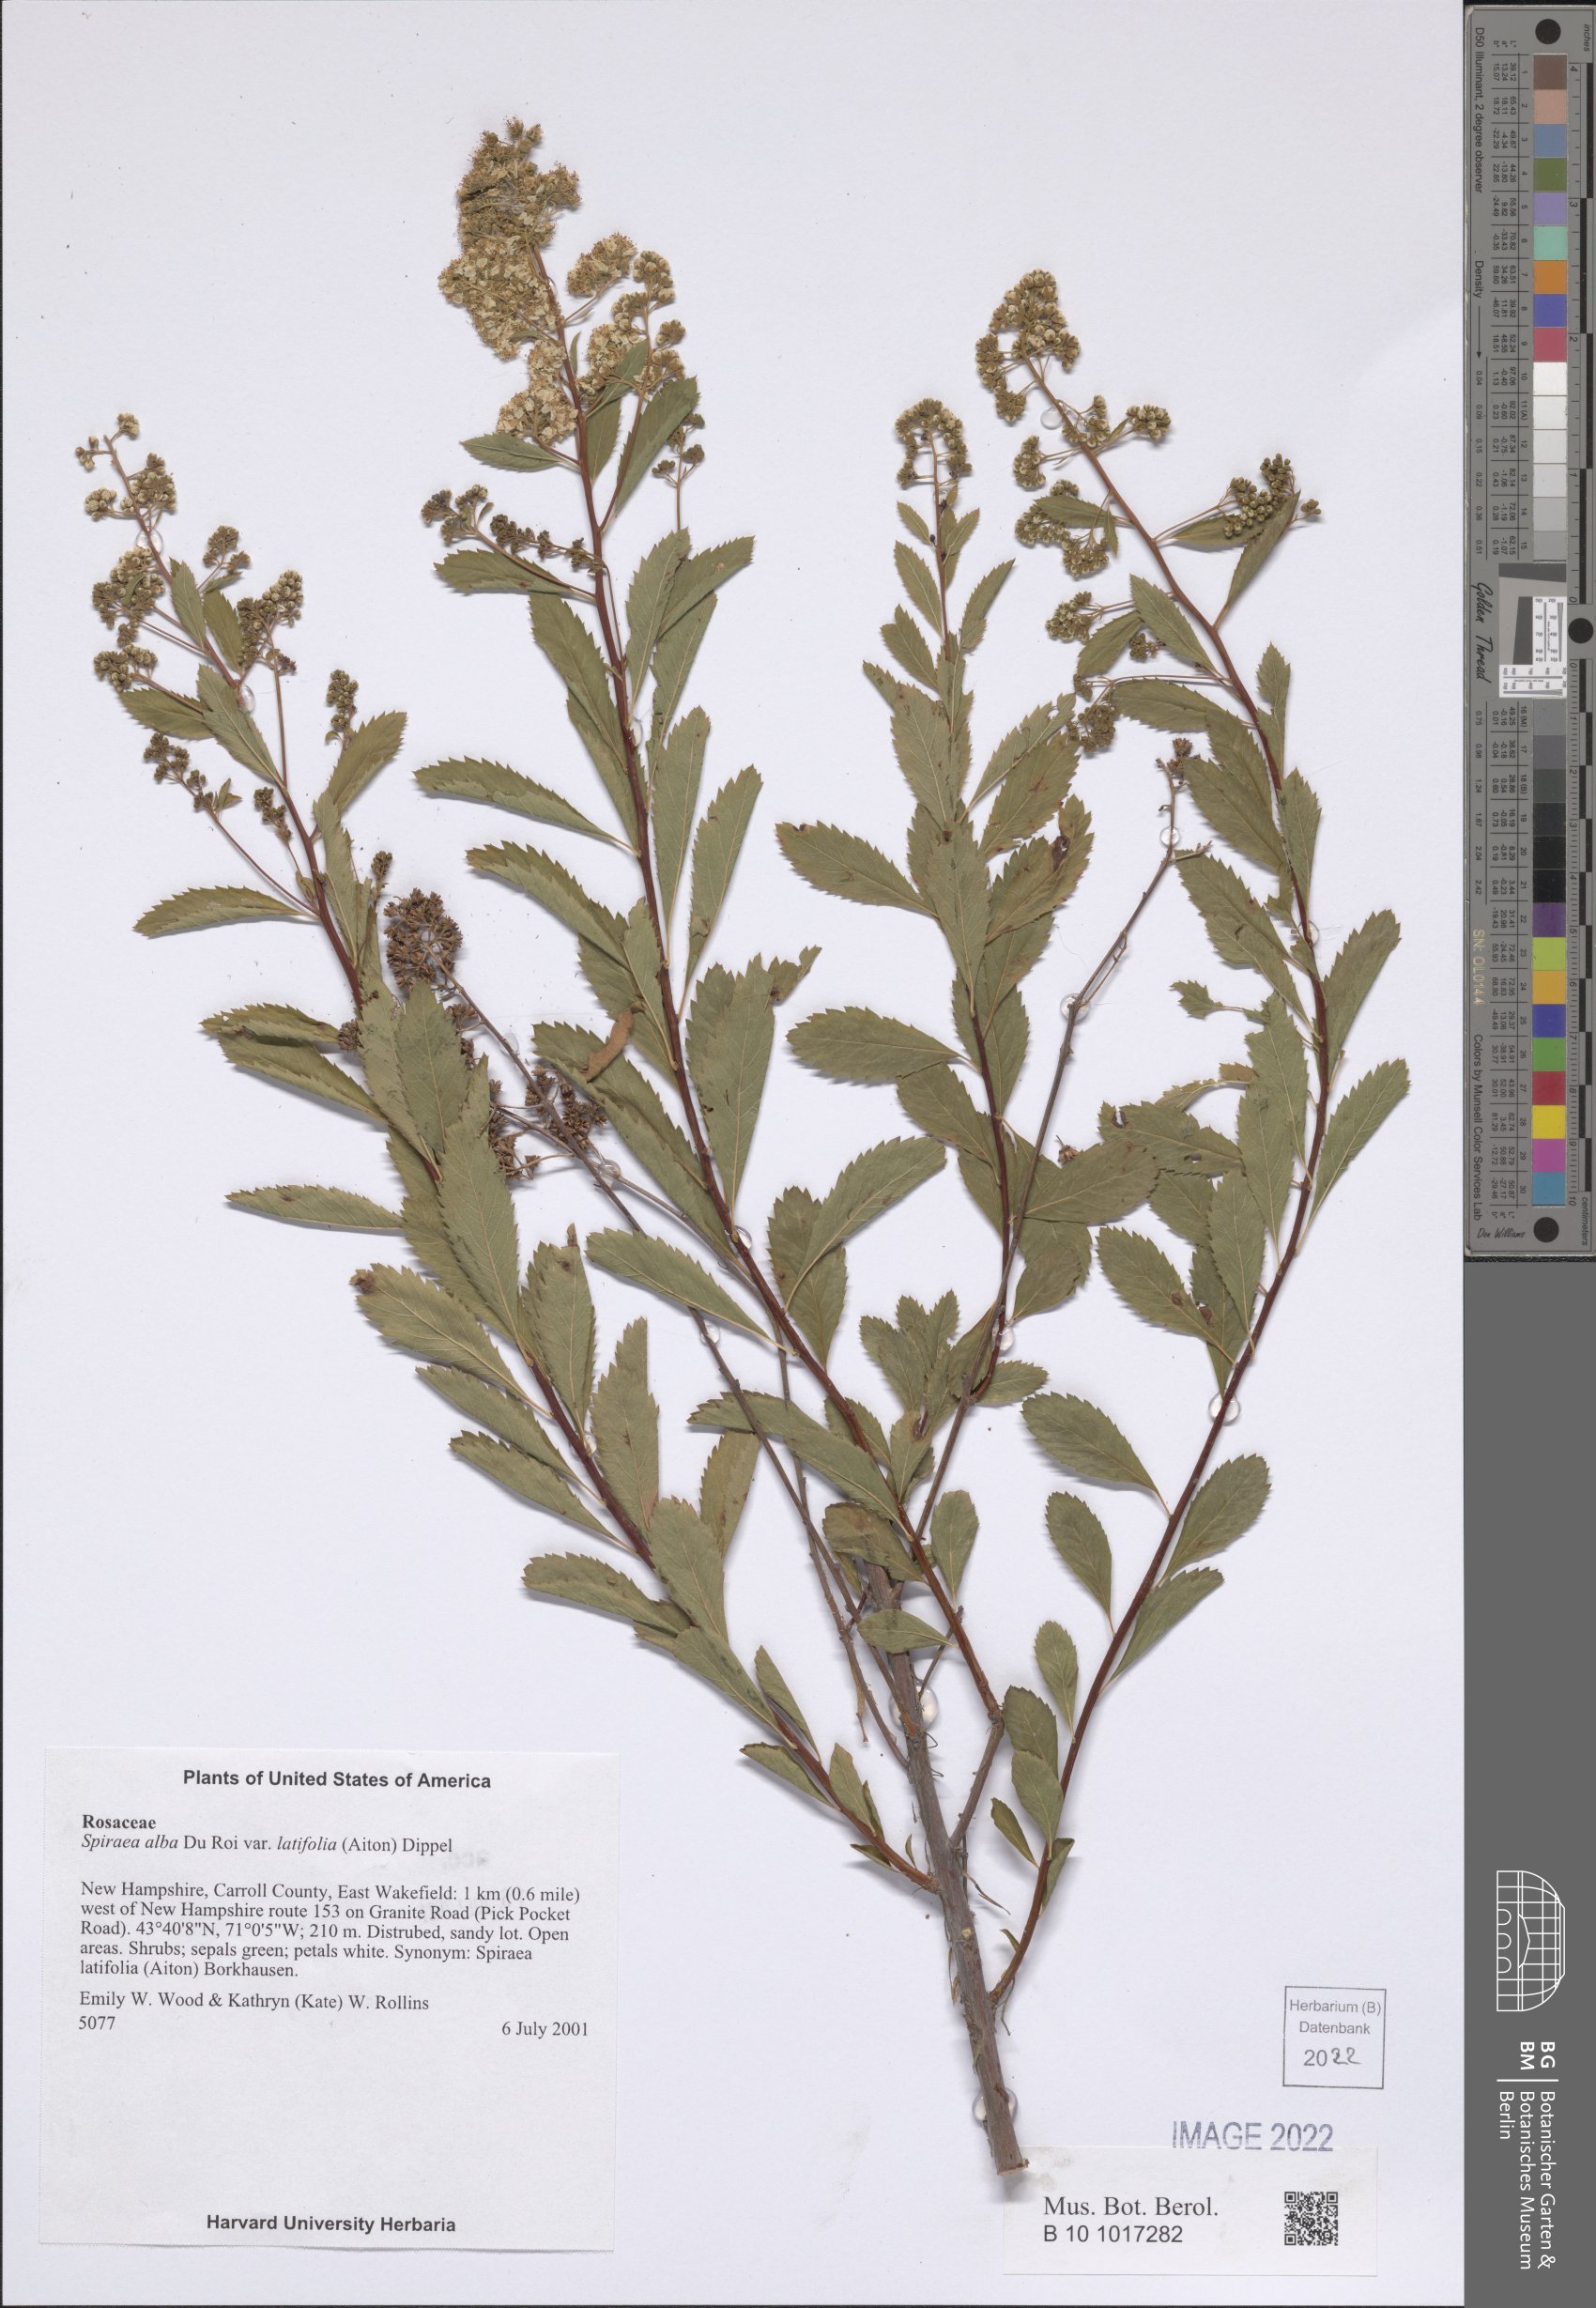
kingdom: Plantae
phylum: Tracheophyta
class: Magnoliopsida
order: Rosales
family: Rosaceae
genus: Spiraea
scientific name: Spiraea alba
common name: Pale bridewort
